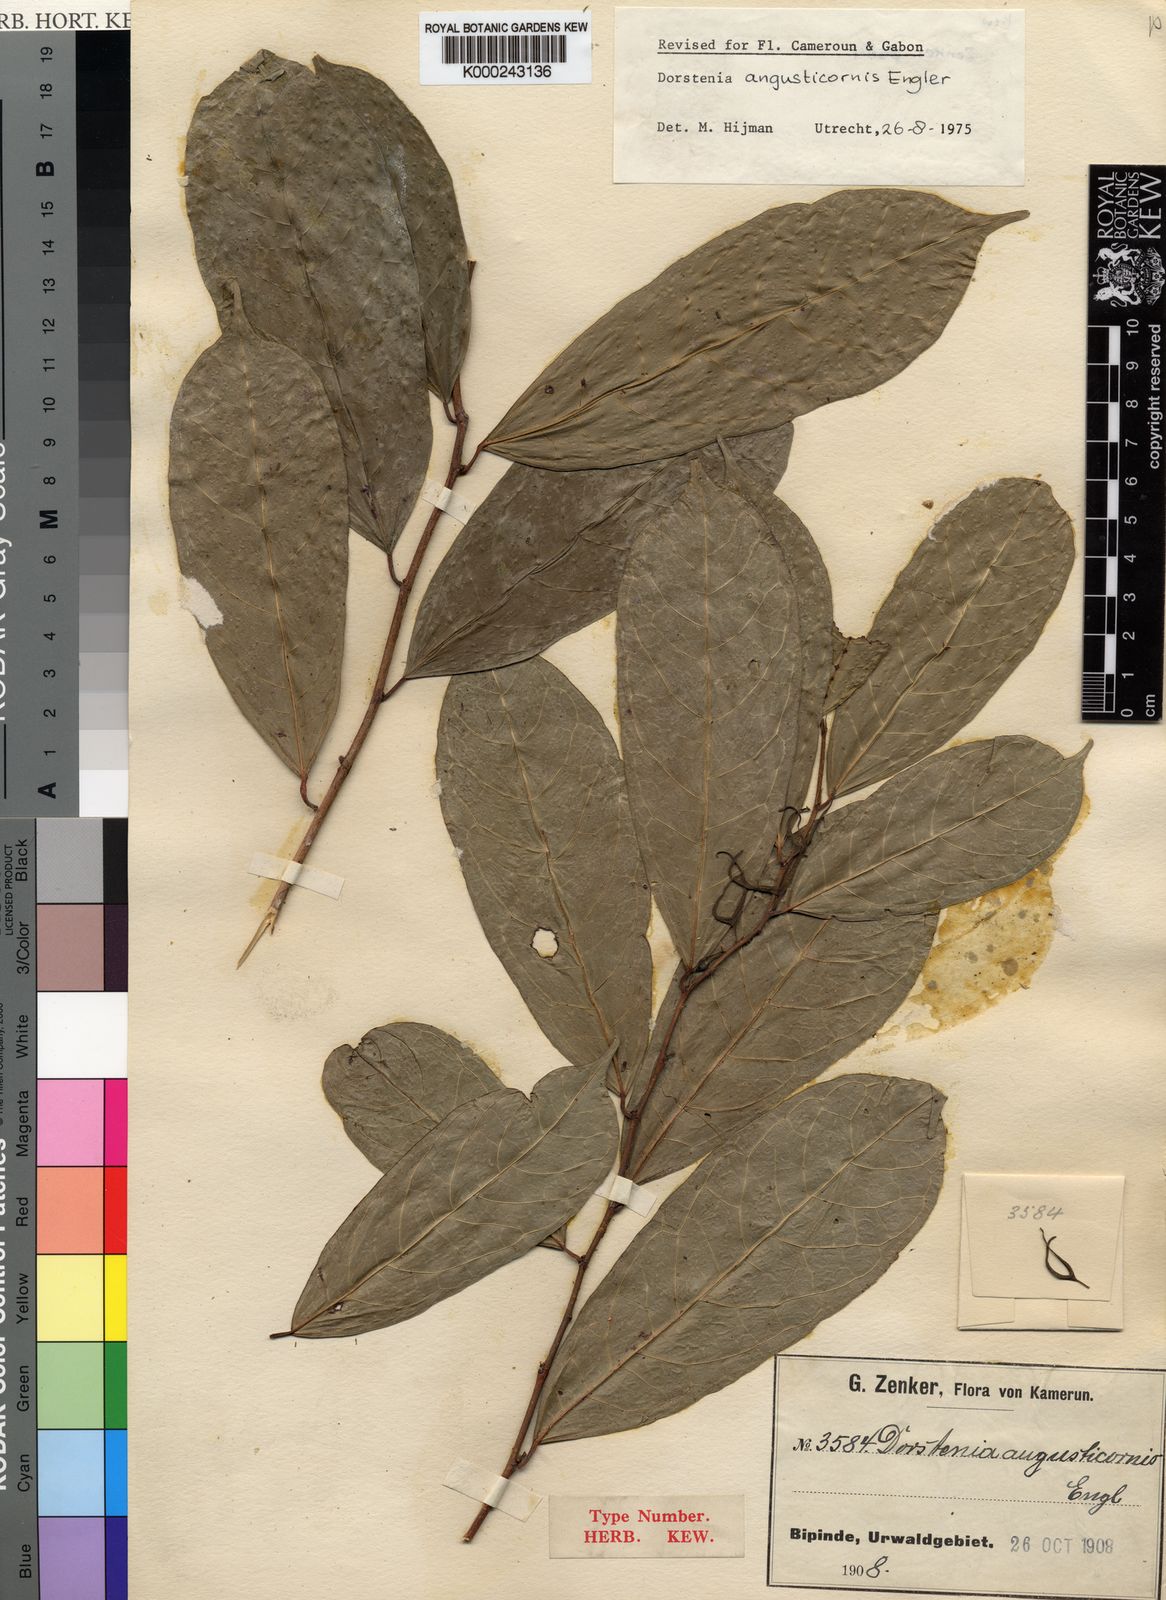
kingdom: Plantae
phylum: Tracheophyta
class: Magnoliopsida
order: Rosales
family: Moraceae
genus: Hijmania
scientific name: Hijmania angusticornis
